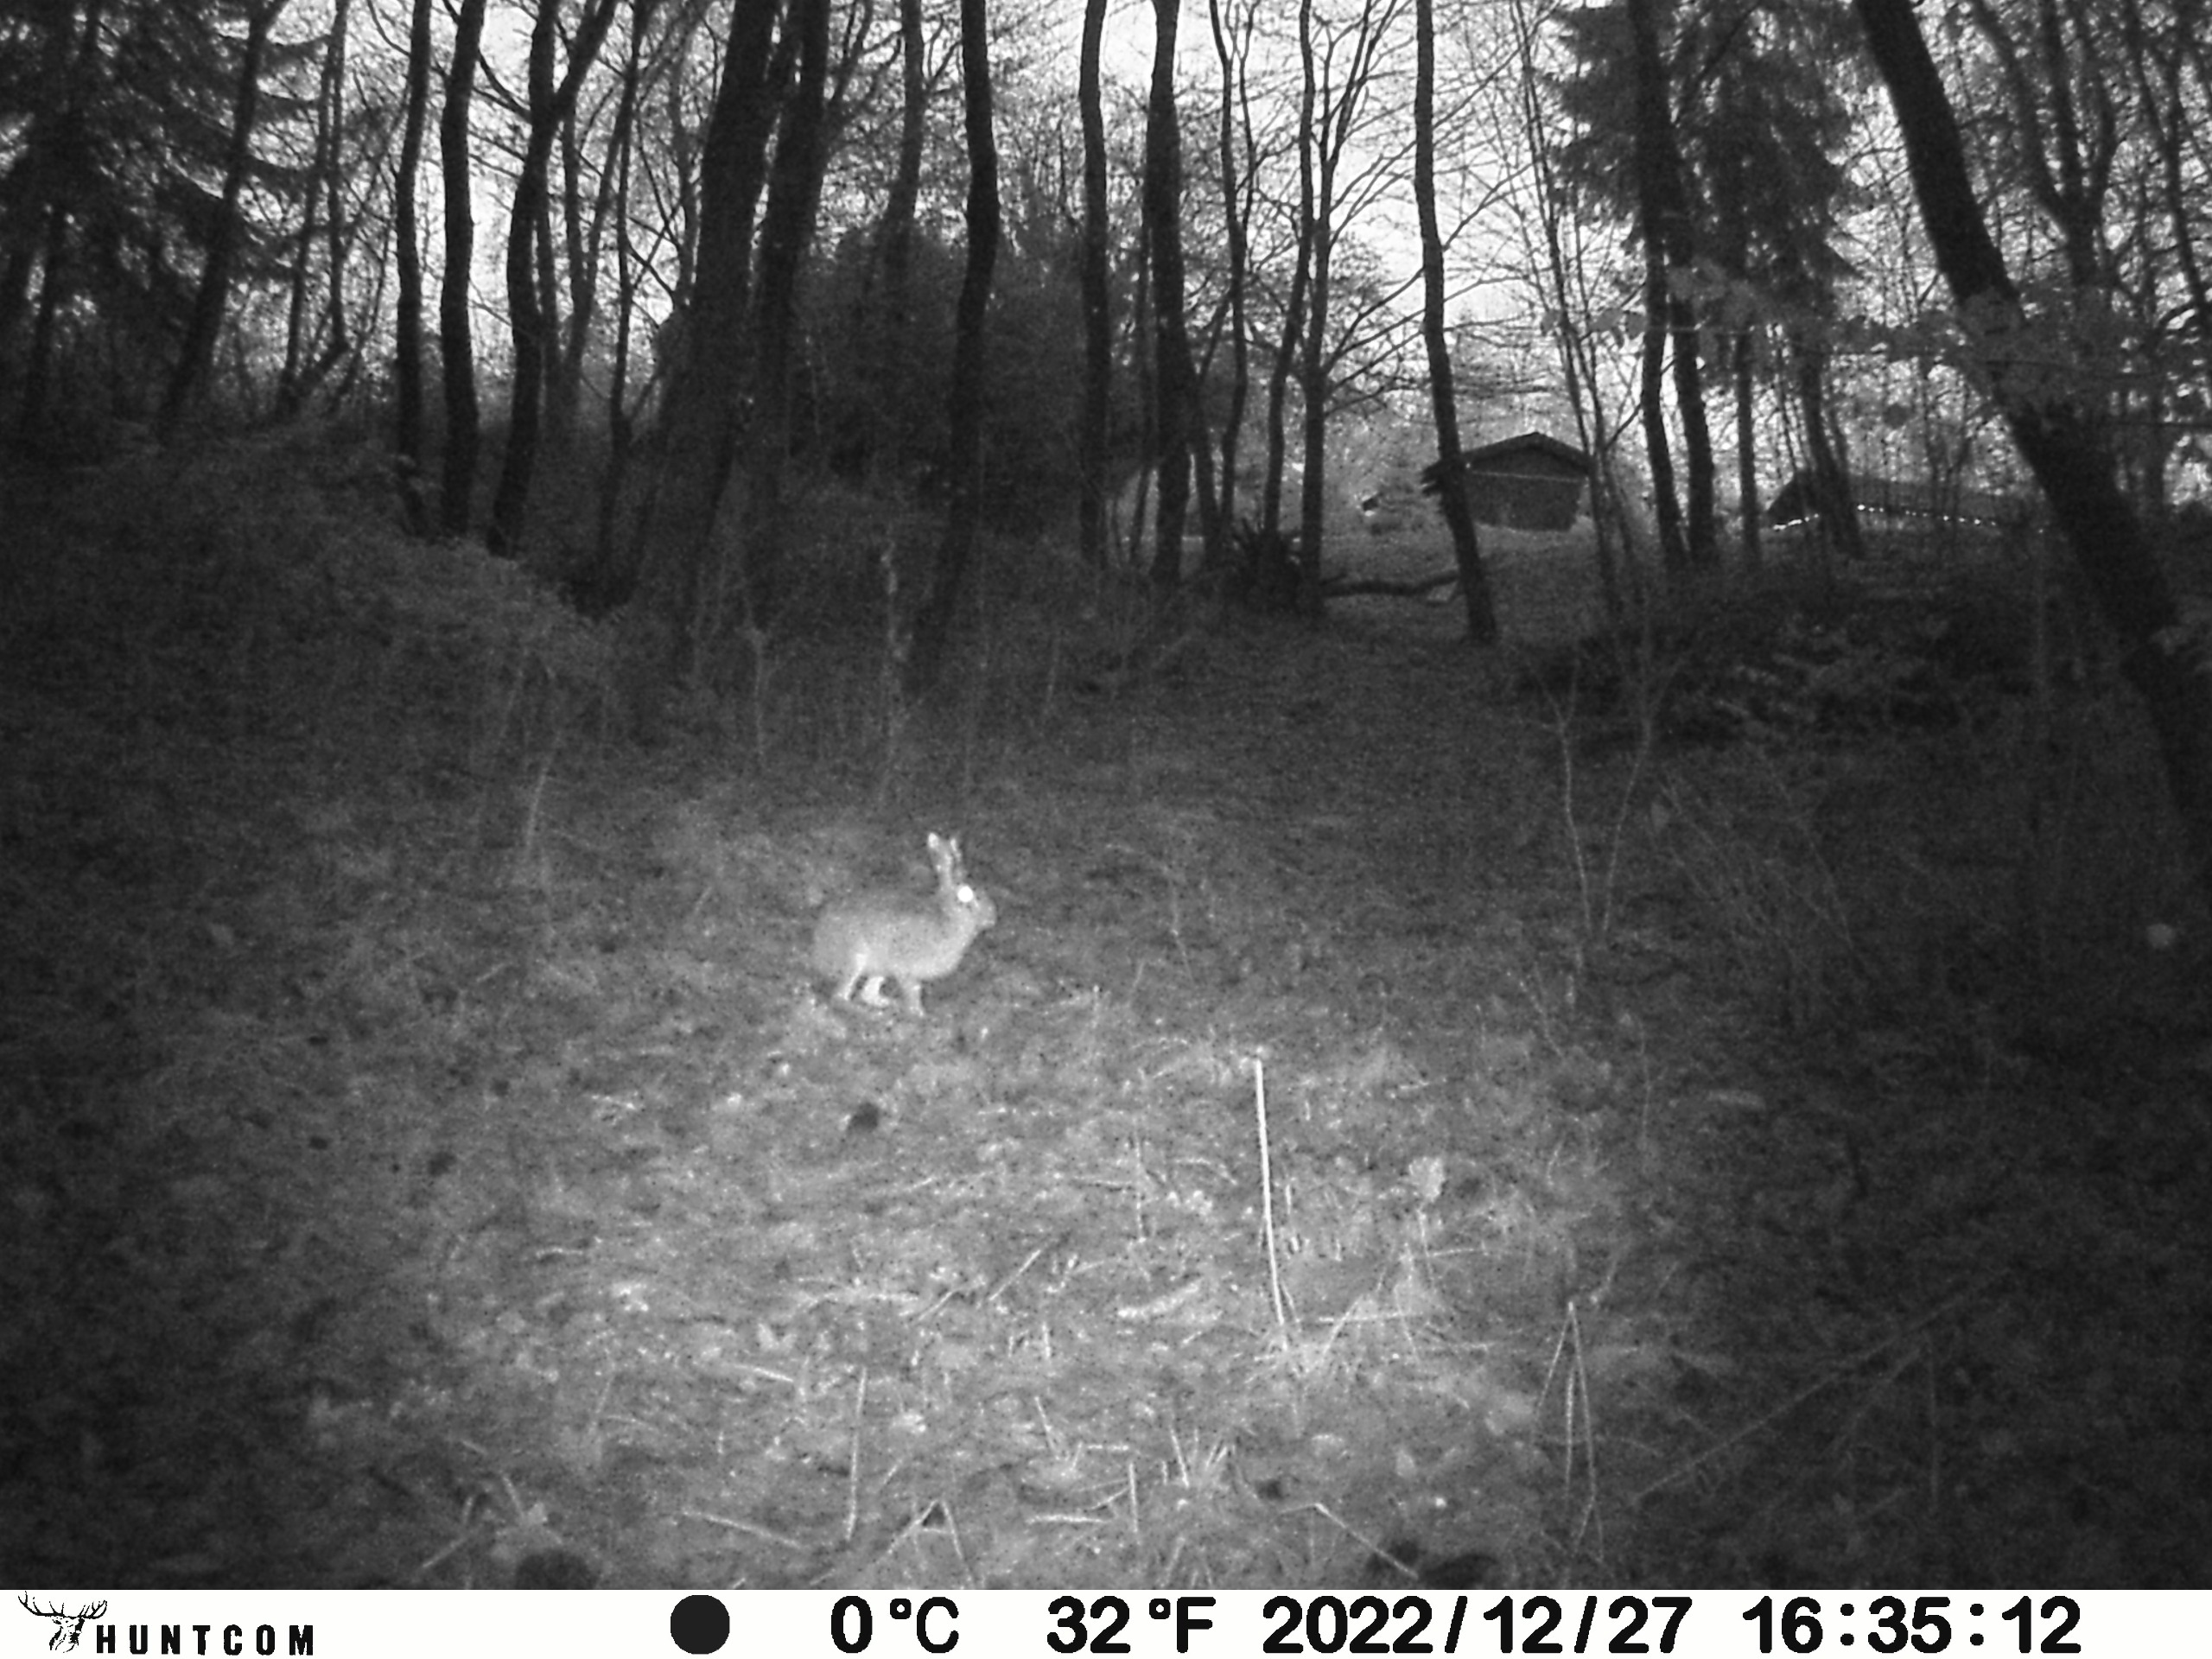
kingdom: Animalia
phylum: Chordata
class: Mammalia
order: Lagomorpha
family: Leporidae
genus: Lepus
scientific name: Lepus europaeus
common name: Hare
